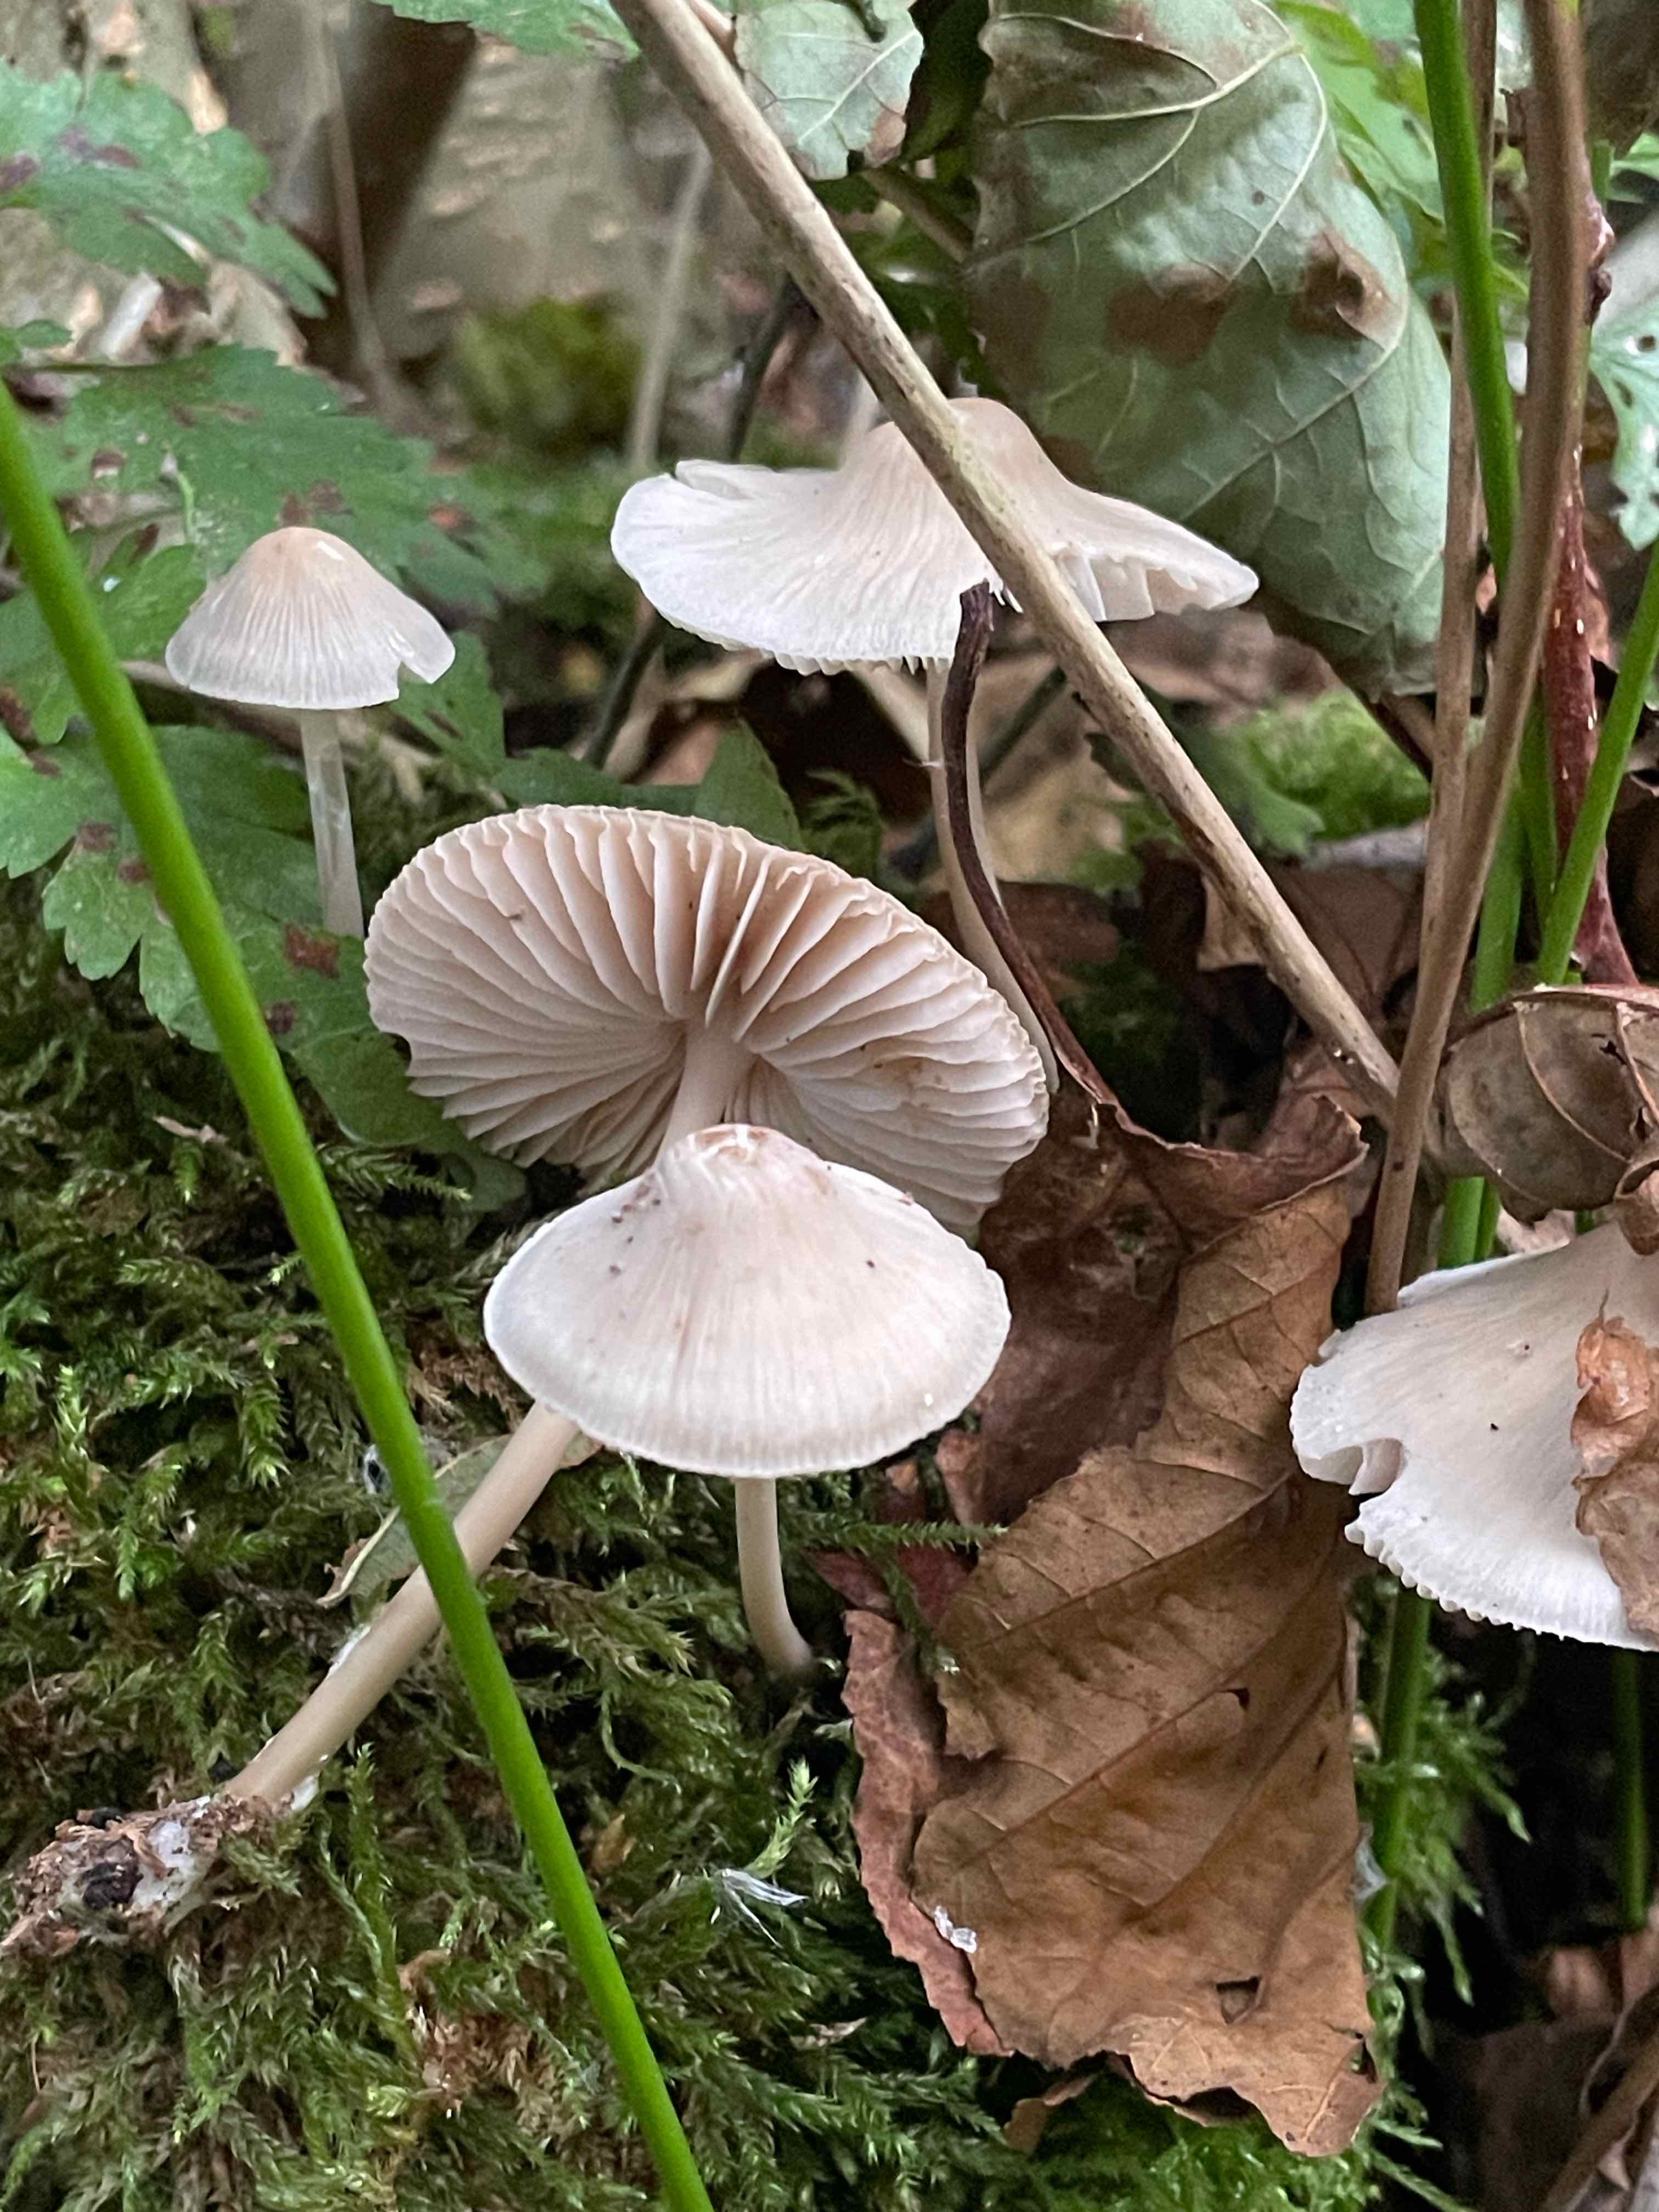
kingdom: Fungi
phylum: Basidiomycota
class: Agaricomycetes
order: Agaricales
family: Mycenaceae
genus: Mycena
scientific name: Mycena galericulata
